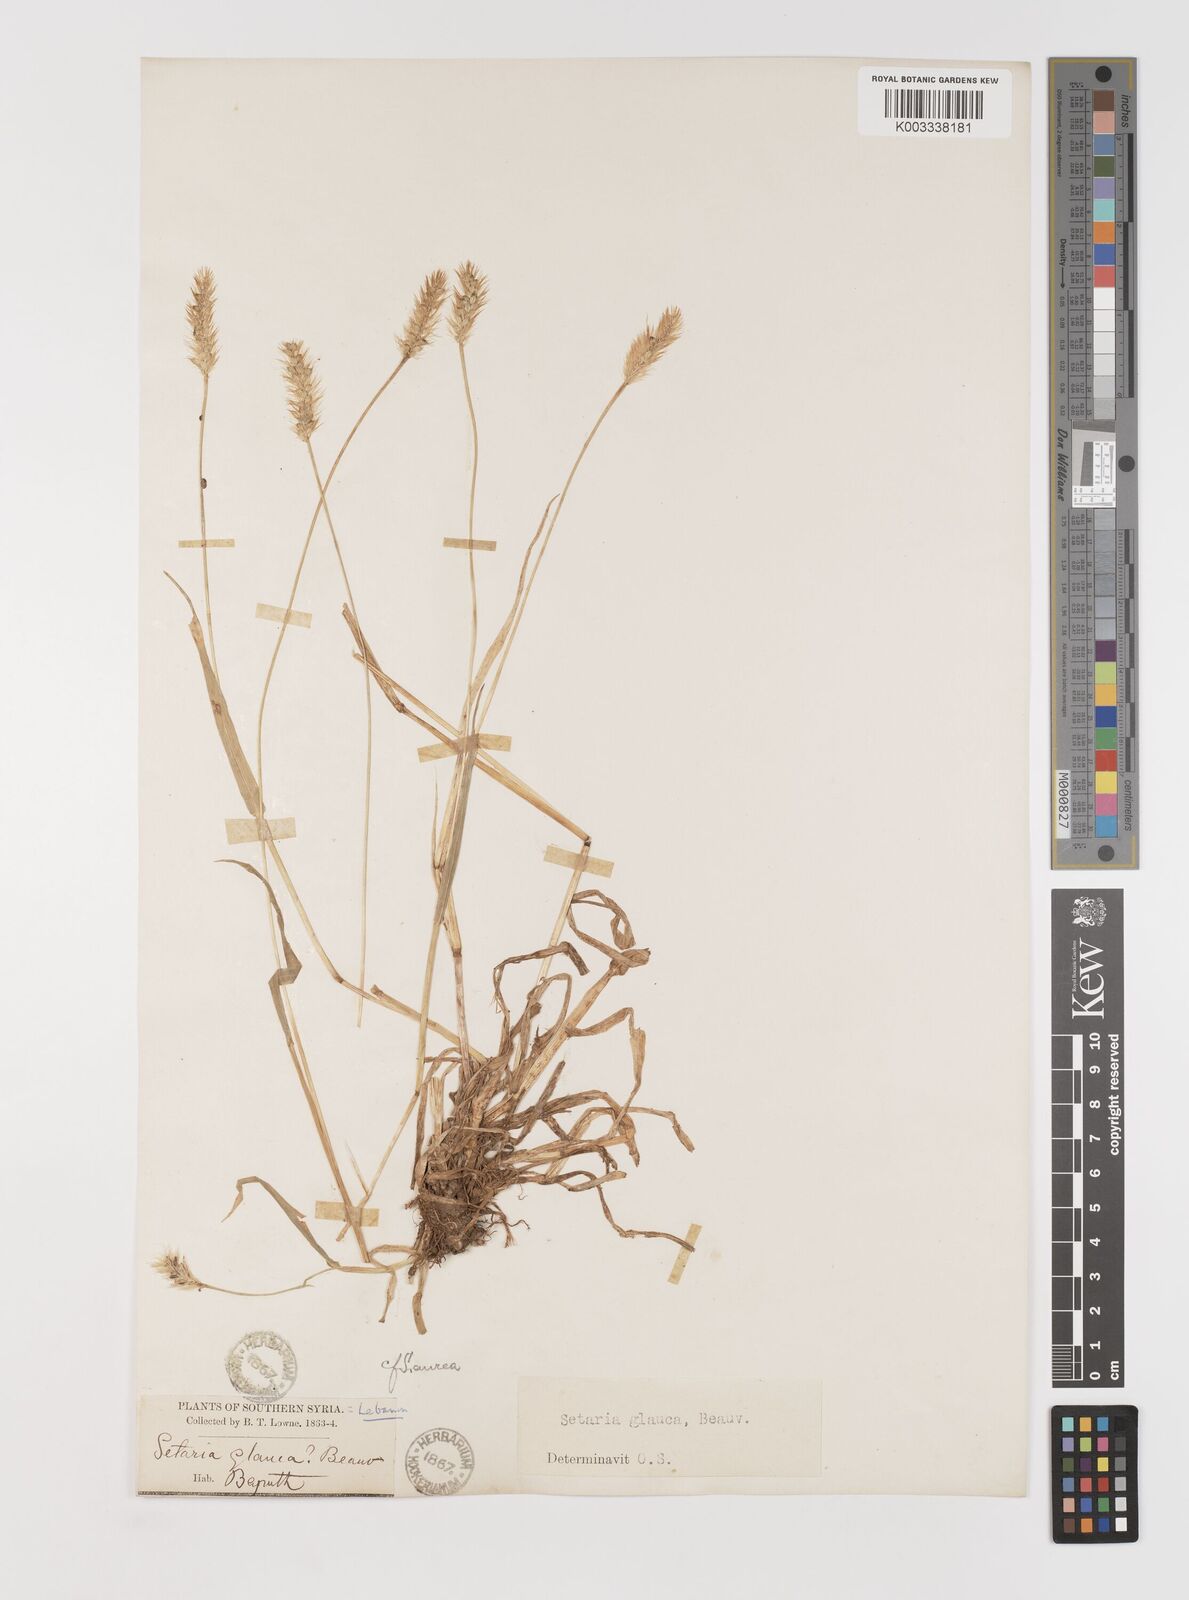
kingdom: Plantae
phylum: Tracheophyta
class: Liliopsida
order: Poales
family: Poaceae
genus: Setaria
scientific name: Setaria pumila
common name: Yellow bristle-grass
